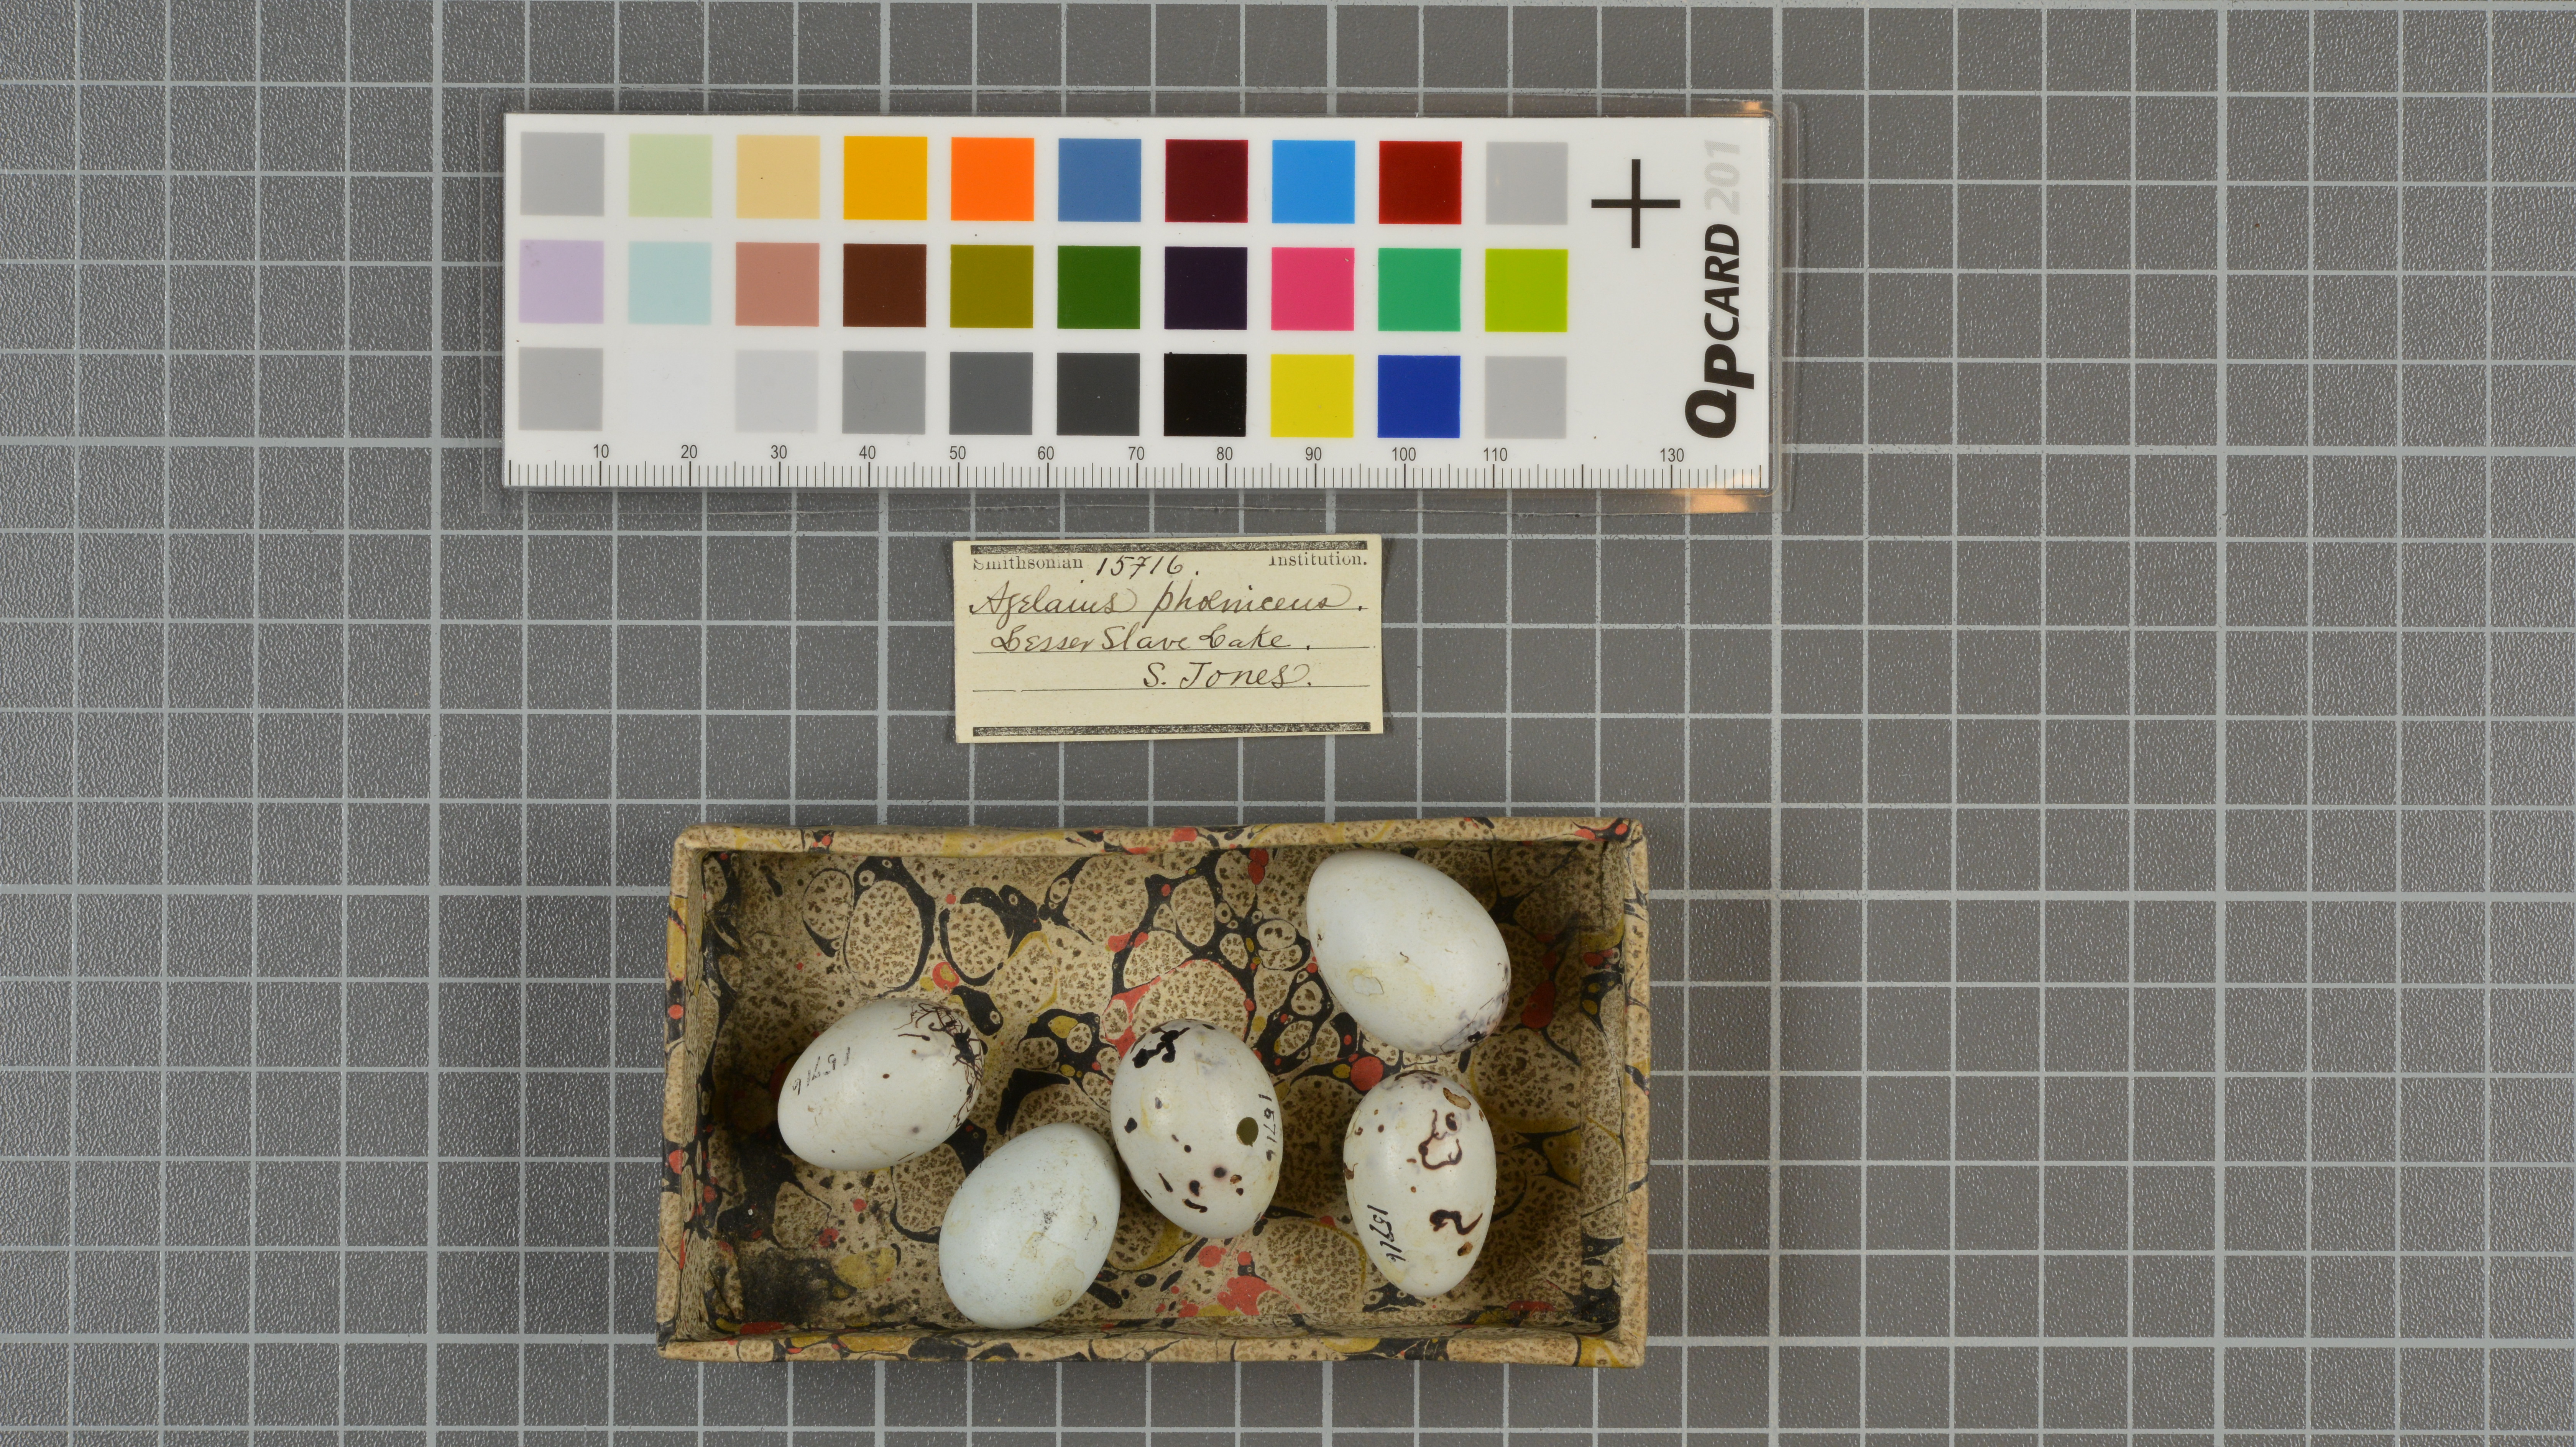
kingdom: Animalia
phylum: Chordata
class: Aves
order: Passeriformes
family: Icteridae
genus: Agelaius
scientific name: Agelaius phoeniceus
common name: Red-winged blackbird
